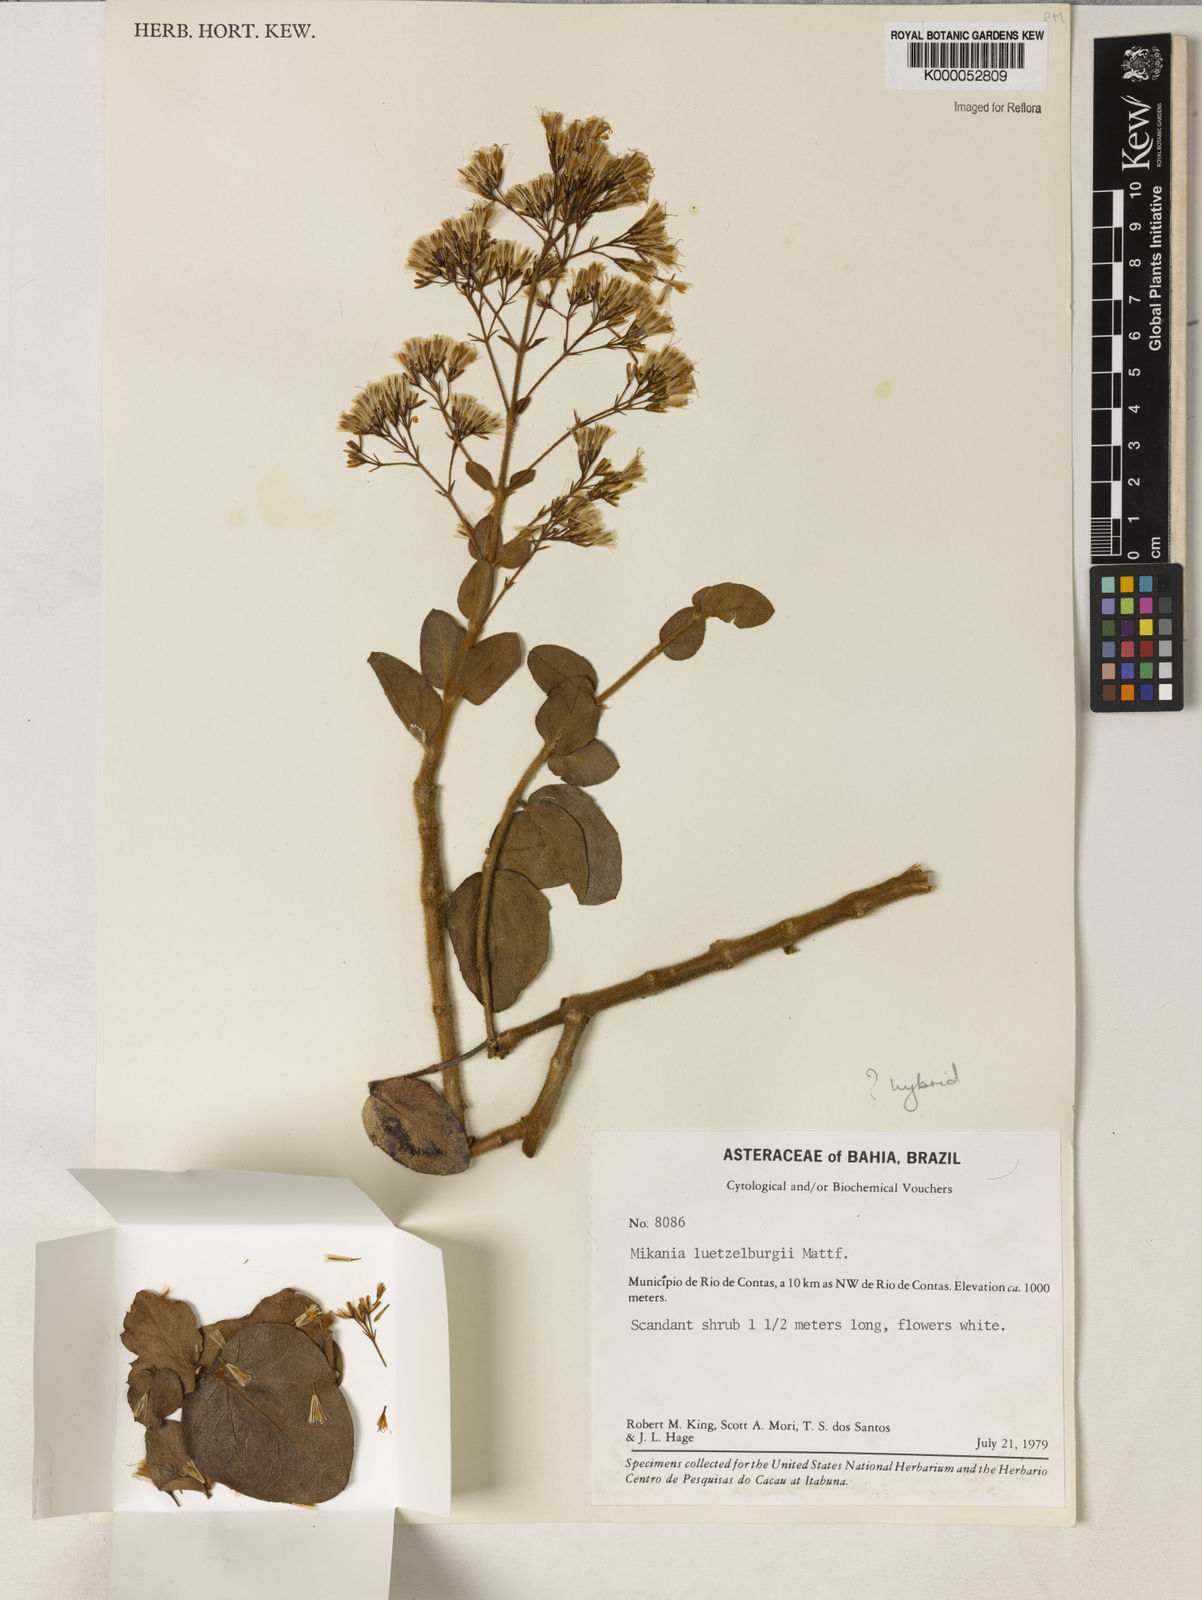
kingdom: Plantae
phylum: Tracheophyta
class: Magnoliopsida
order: Asterales
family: Asteraceae
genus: Mikania
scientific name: Mikania luetzelburgii
